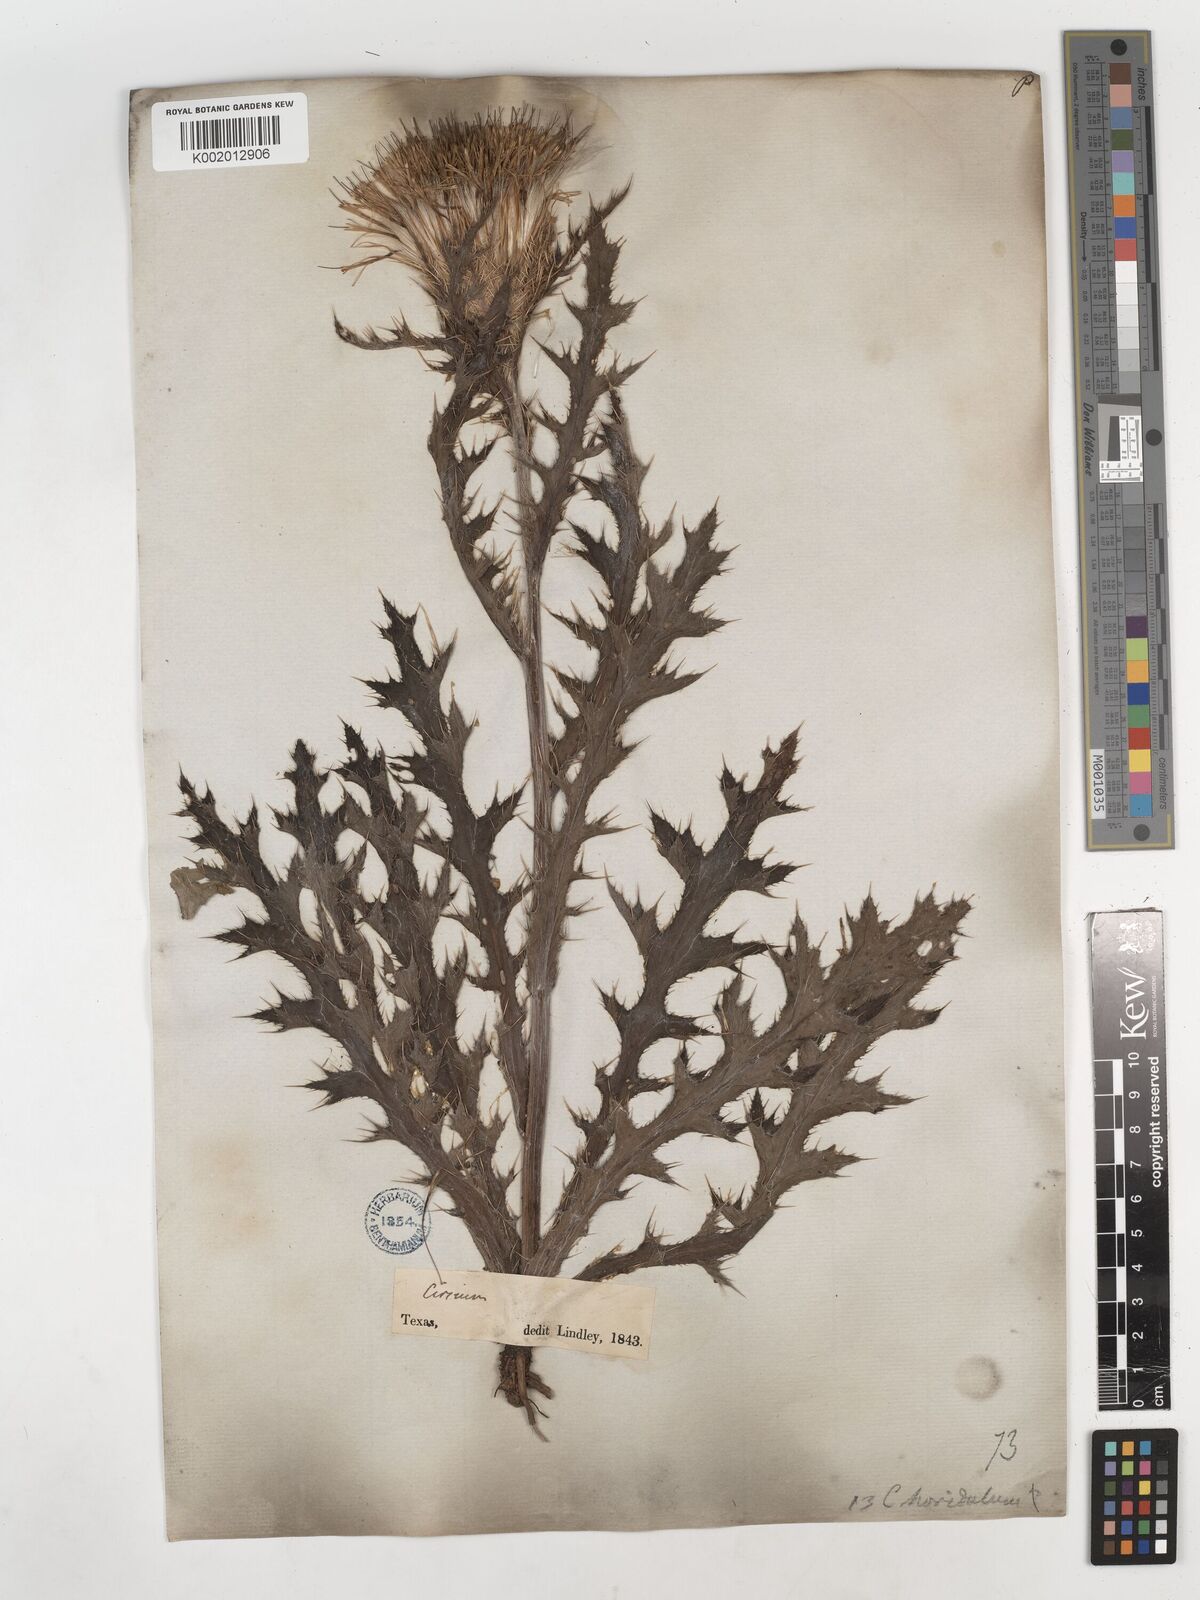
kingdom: Plantae
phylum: Tracheophyta
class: Magnoliopsida
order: Asterales
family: Asteraceae
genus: Cirsium
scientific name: Cirsium horridulum
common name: Bristly thistle
